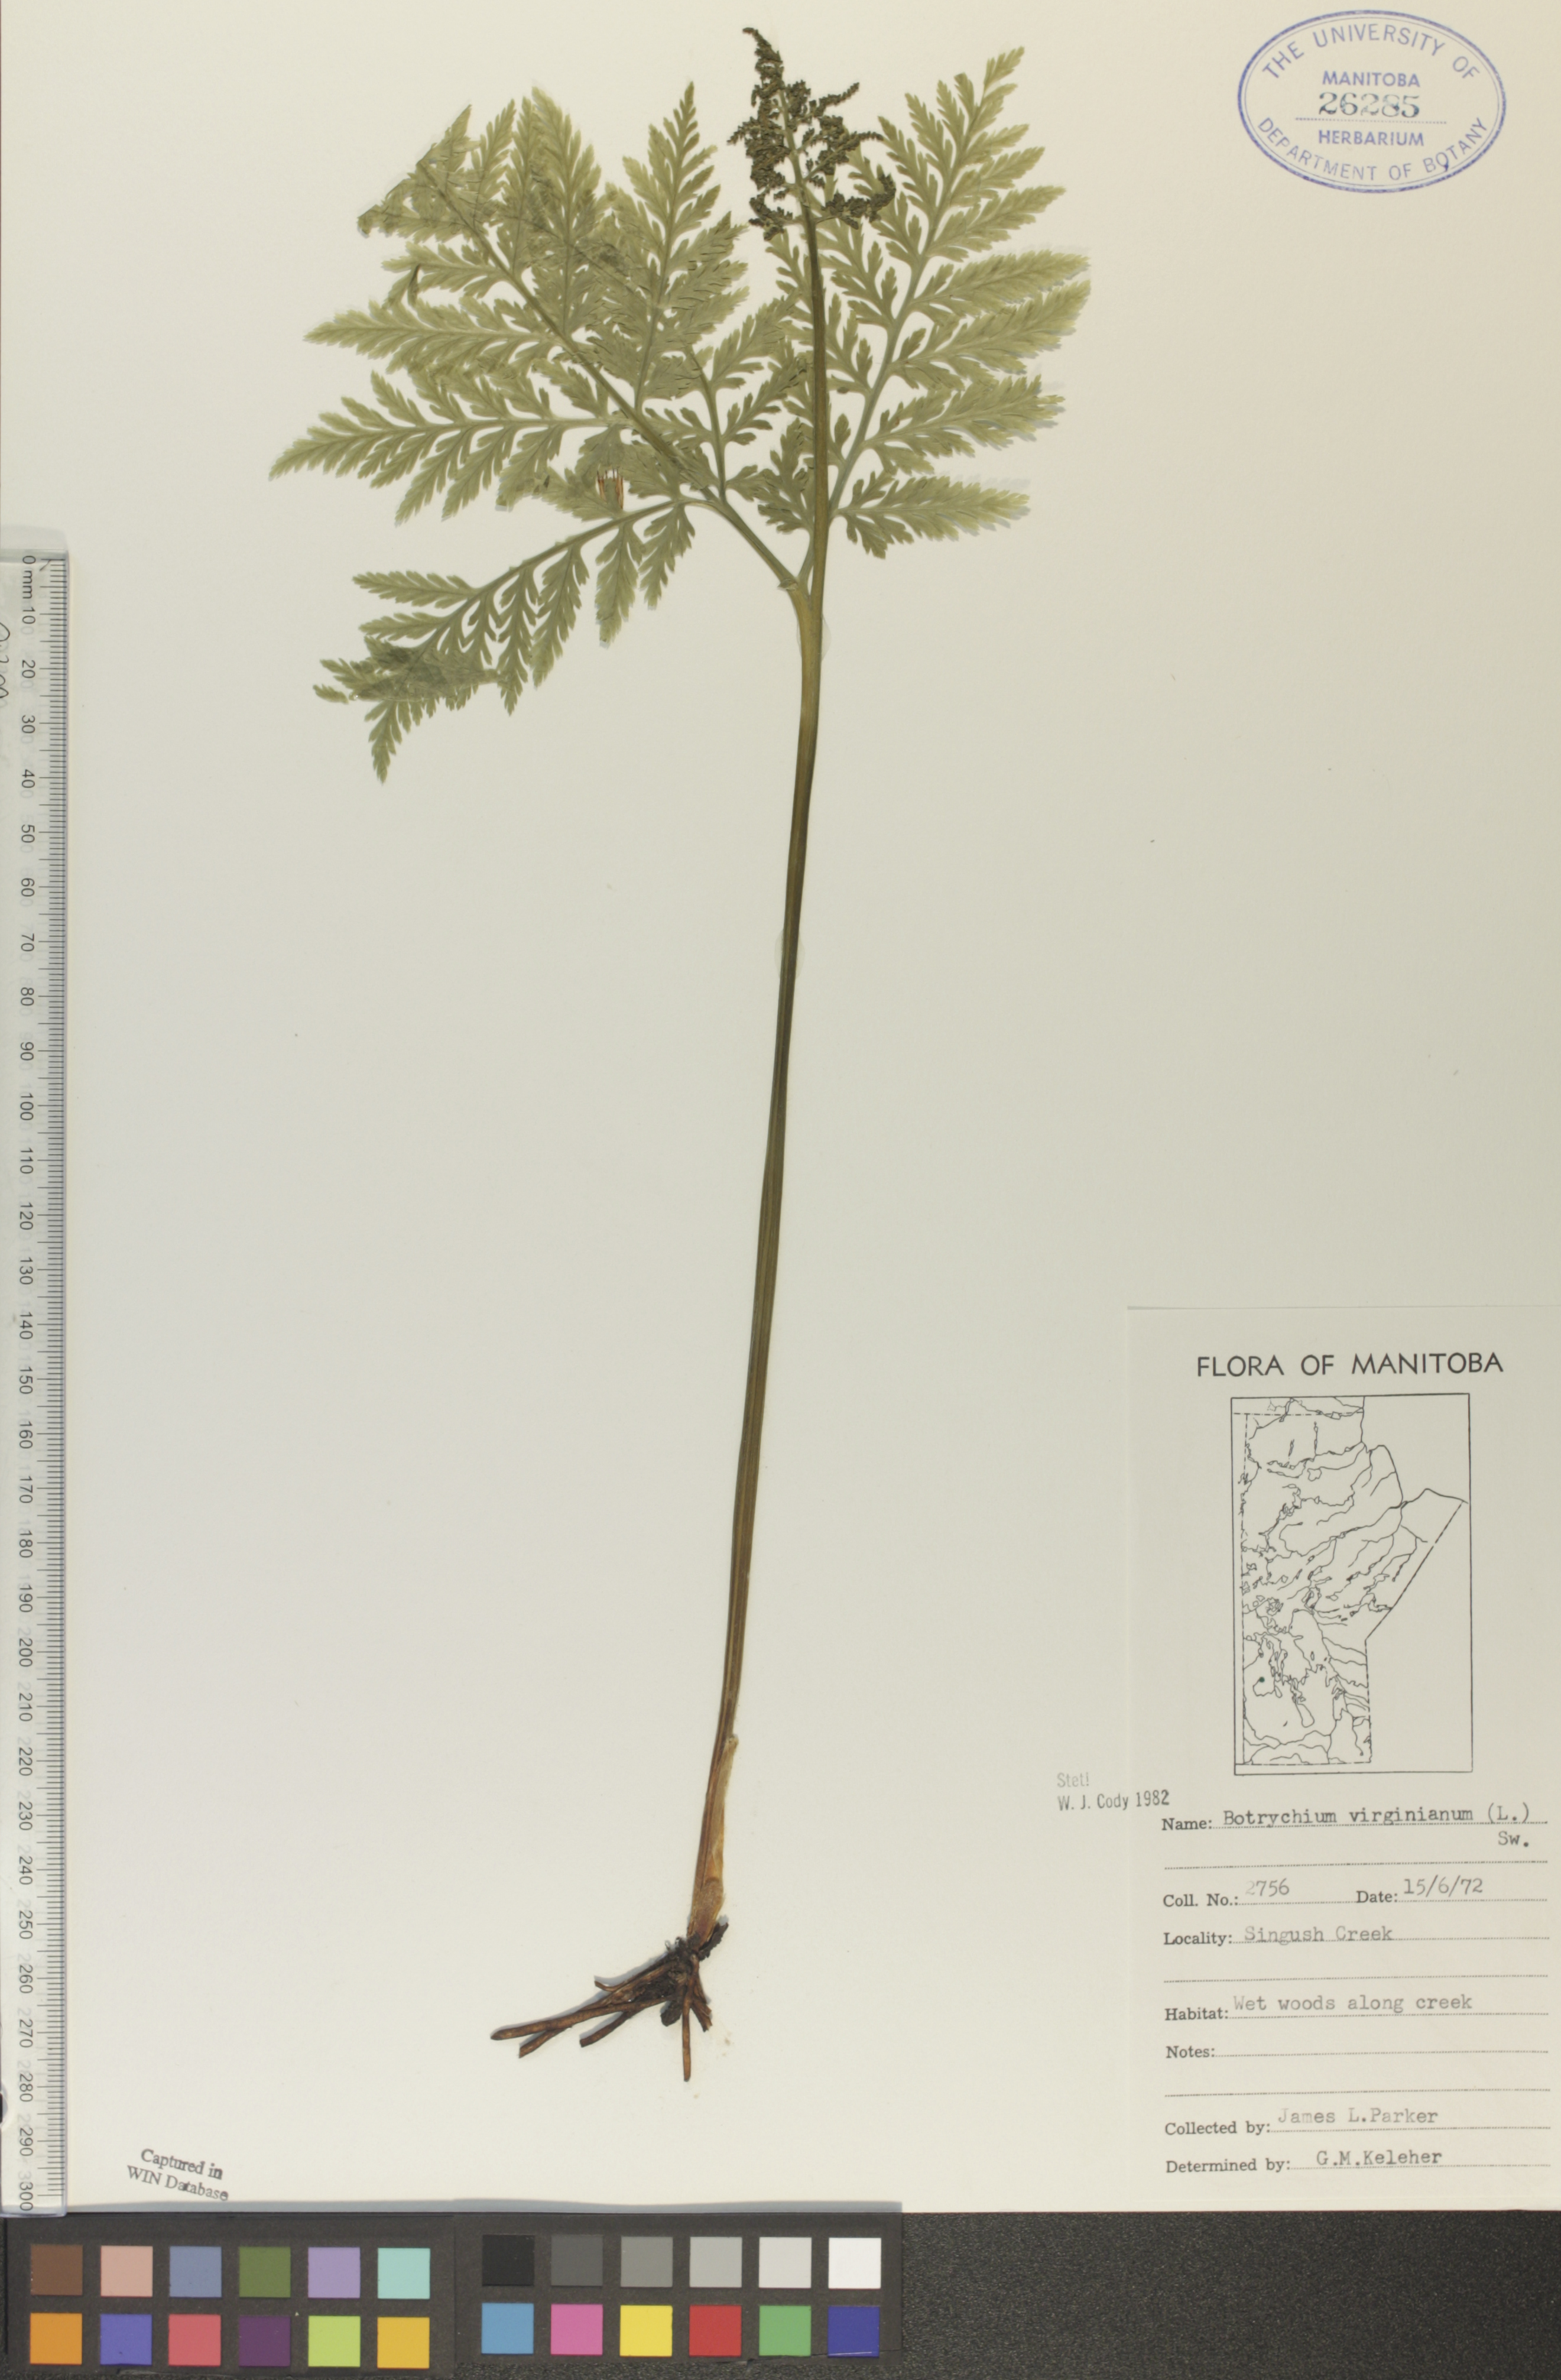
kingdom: Plantae
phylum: Tracheophyta
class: Polypodiopsida
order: Ophioglossales
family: Ophioglossaceae
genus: Botrypus
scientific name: Botrypus virginianus
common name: Common grapefern
